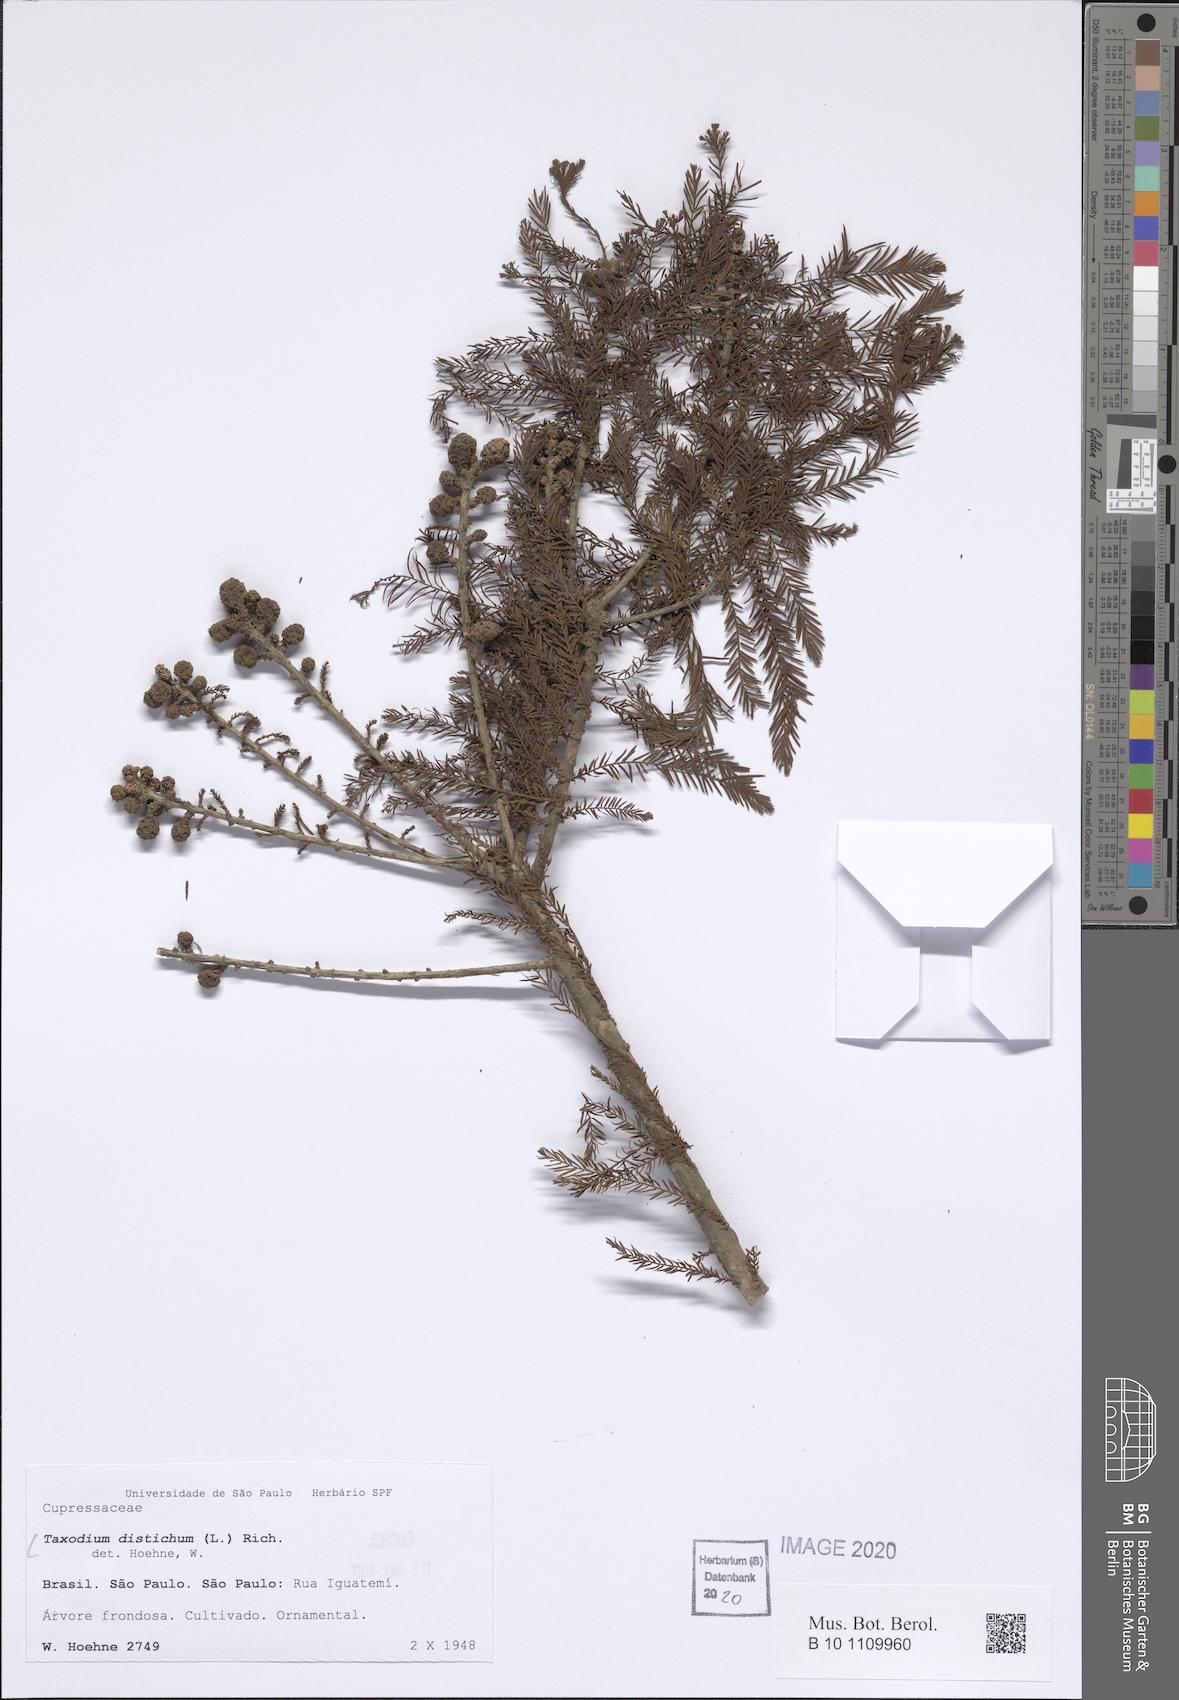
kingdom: Plantae
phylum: Tracheophyta
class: Pinopsida
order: Pinales
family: Cupressaceae
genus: Taxodium
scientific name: Taxodium distichum
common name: Bald cypress
